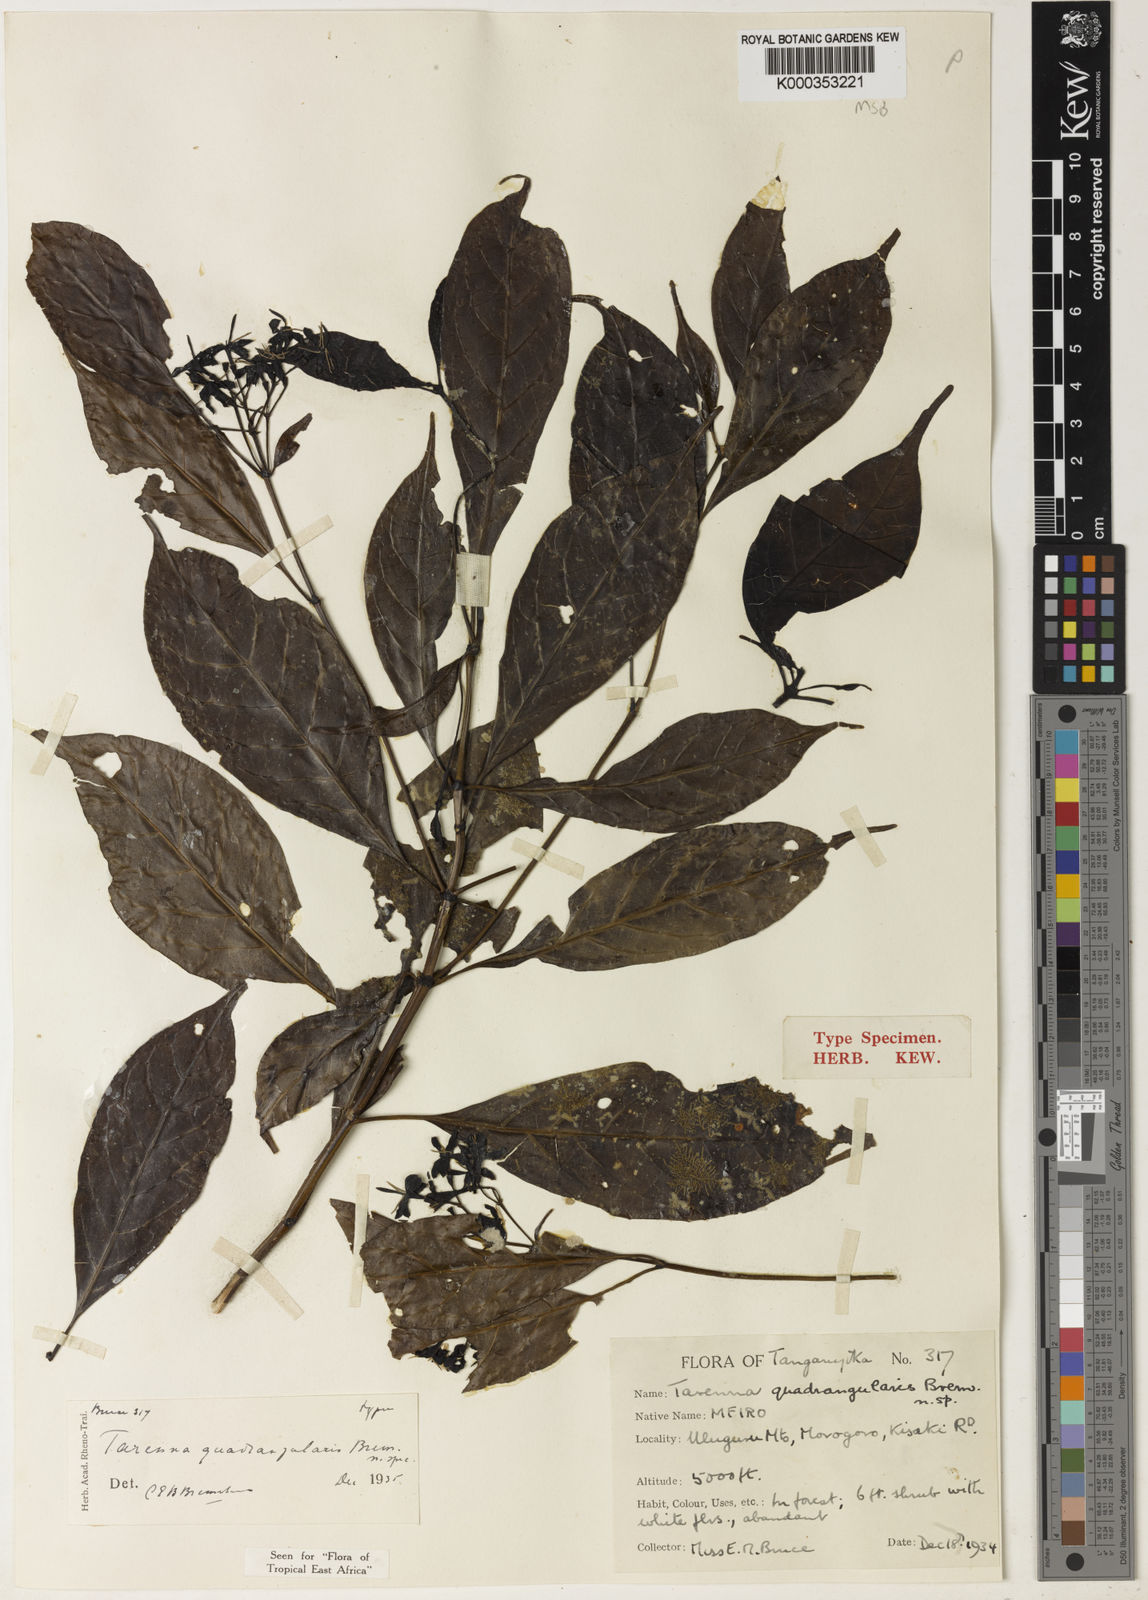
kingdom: Plantae
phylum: Tracheophyta
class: Magnoliopsida
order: Gentianales
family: Rubiaceae
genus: Tarenna
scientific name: Tarenna quadrangularis
